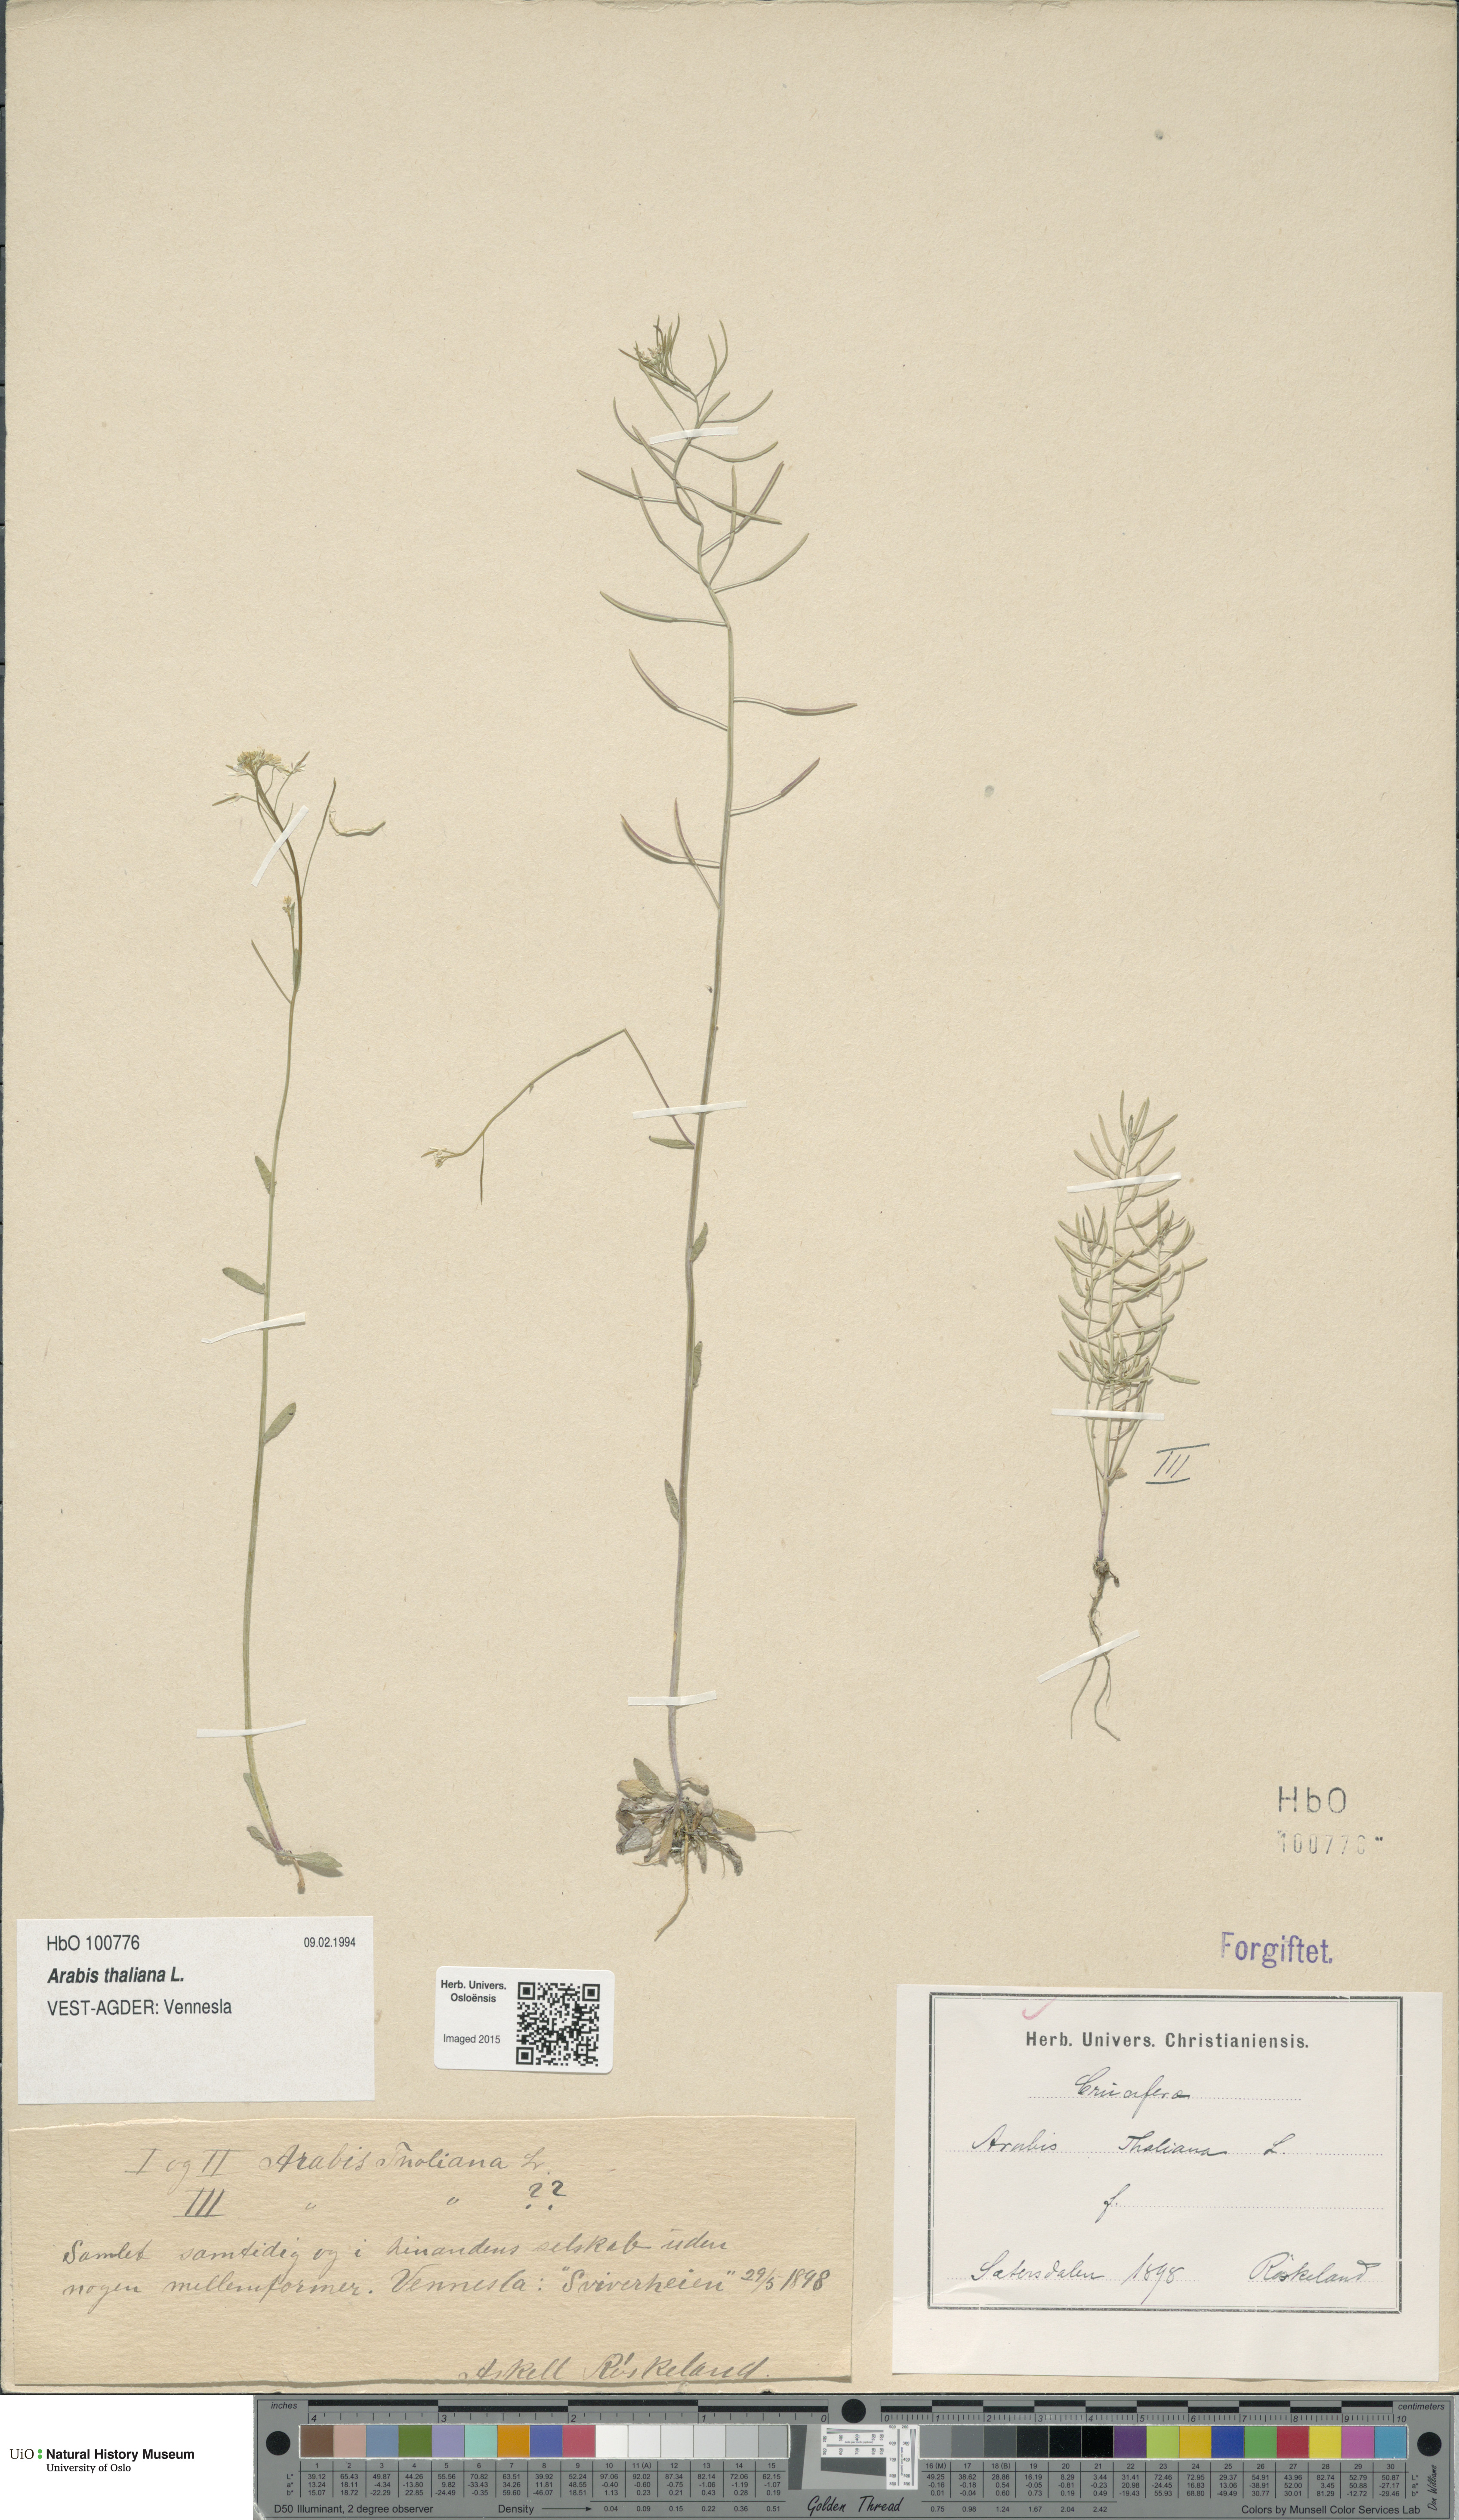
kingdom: Plantae
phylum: Tracheophyta
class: Magnoliopsida
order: Brassicales
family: Brassicaceae
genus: Arabidopsis
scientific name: Arabidopsis thaliana
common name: Thale cress
